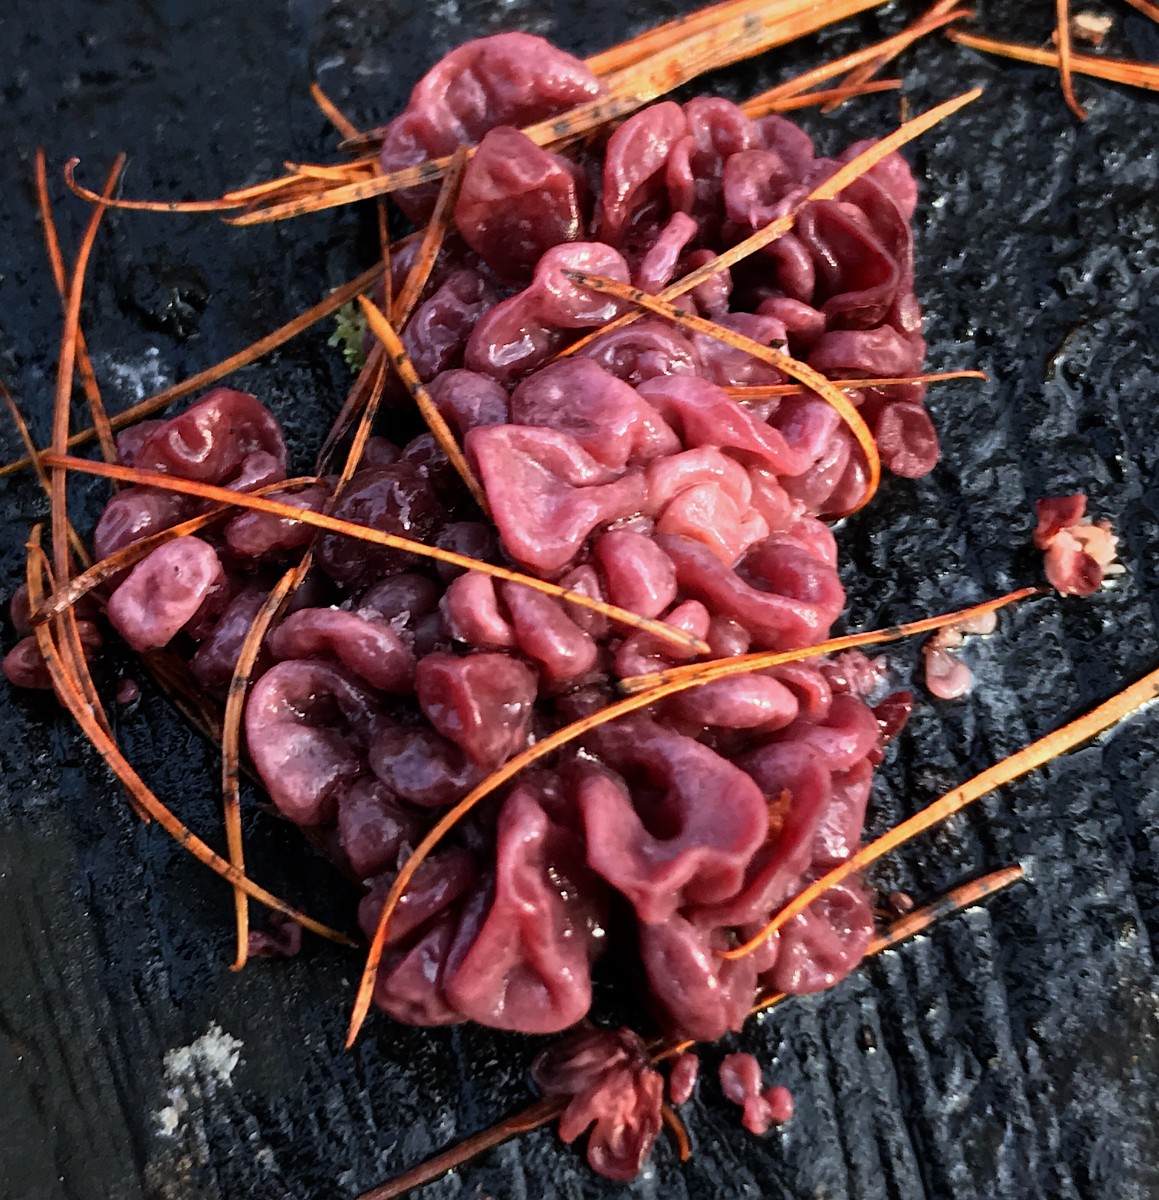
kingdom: Fungi
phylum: Ascomycota
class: Leotiomycetes
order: Helotiales
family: Gelatinodiscaceae
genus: Ascocoryne
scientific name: Ascocoryne sarcoides
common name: rødlilla sejskive
